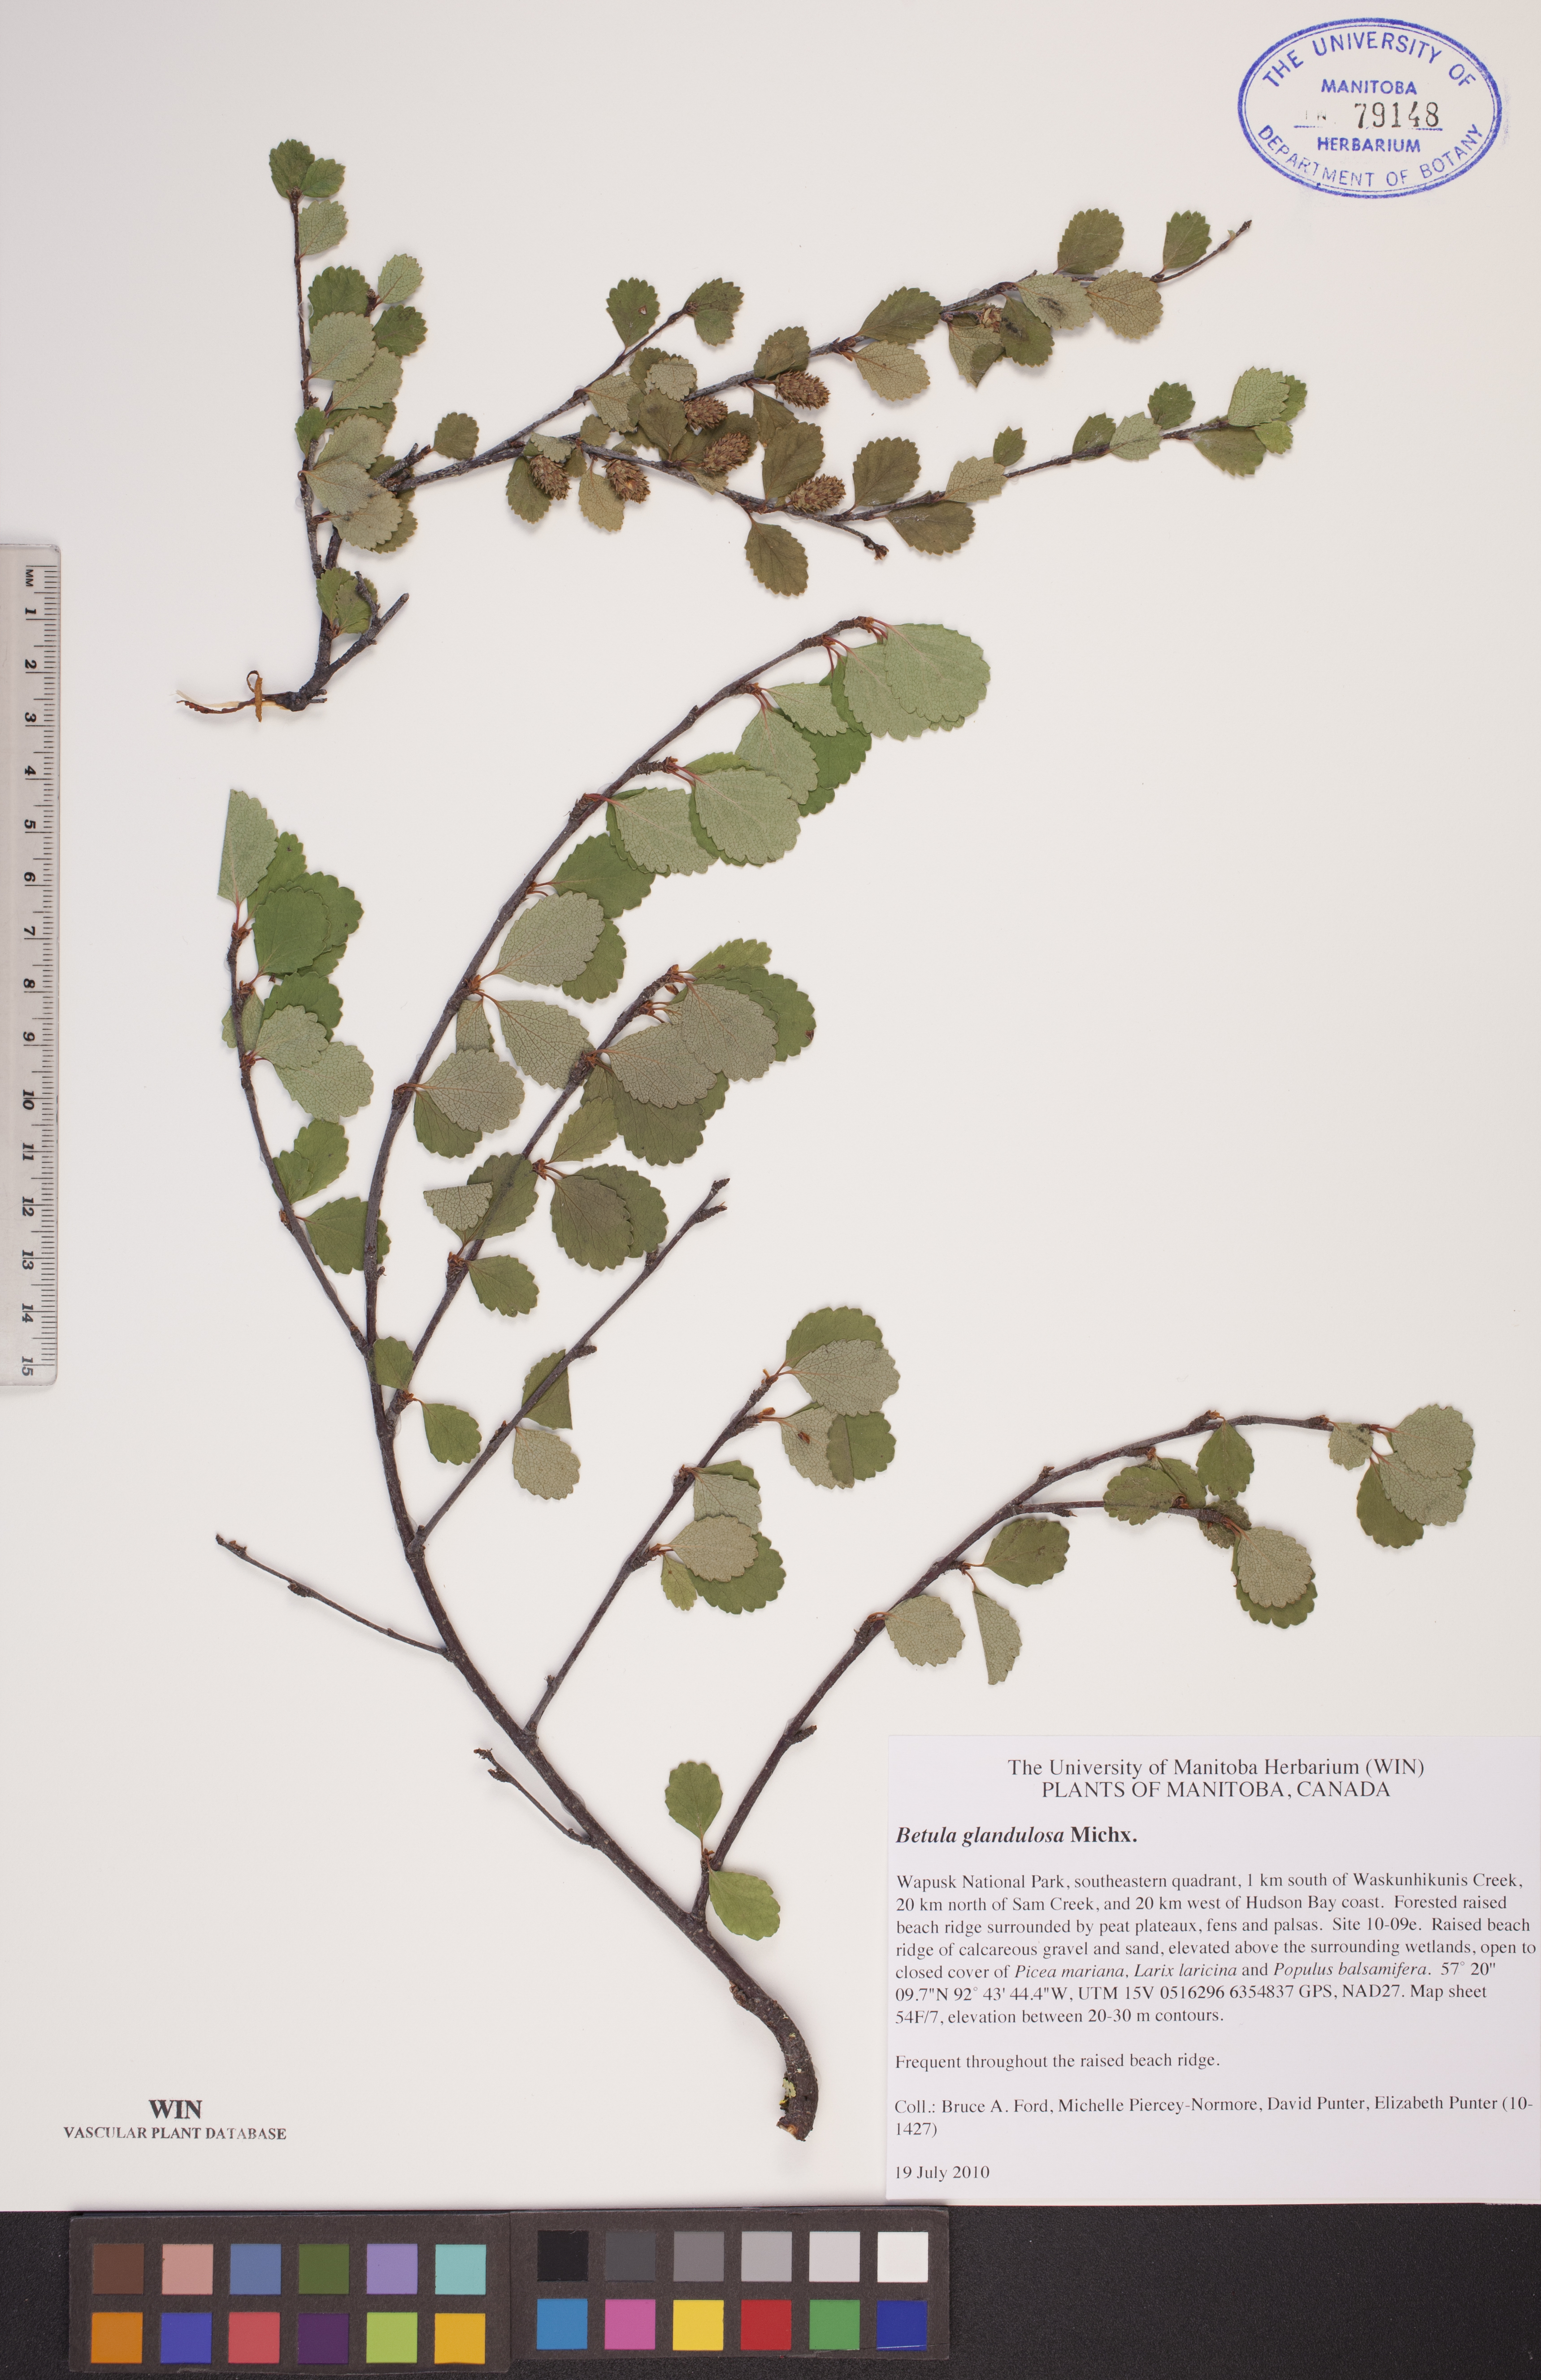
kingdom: Plantae
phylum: Tracheophyta
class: Magnoliopsida
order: Fagales
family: Betulaceae
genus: Betula
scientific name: Betula glandulosa
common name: Dwarf birch
